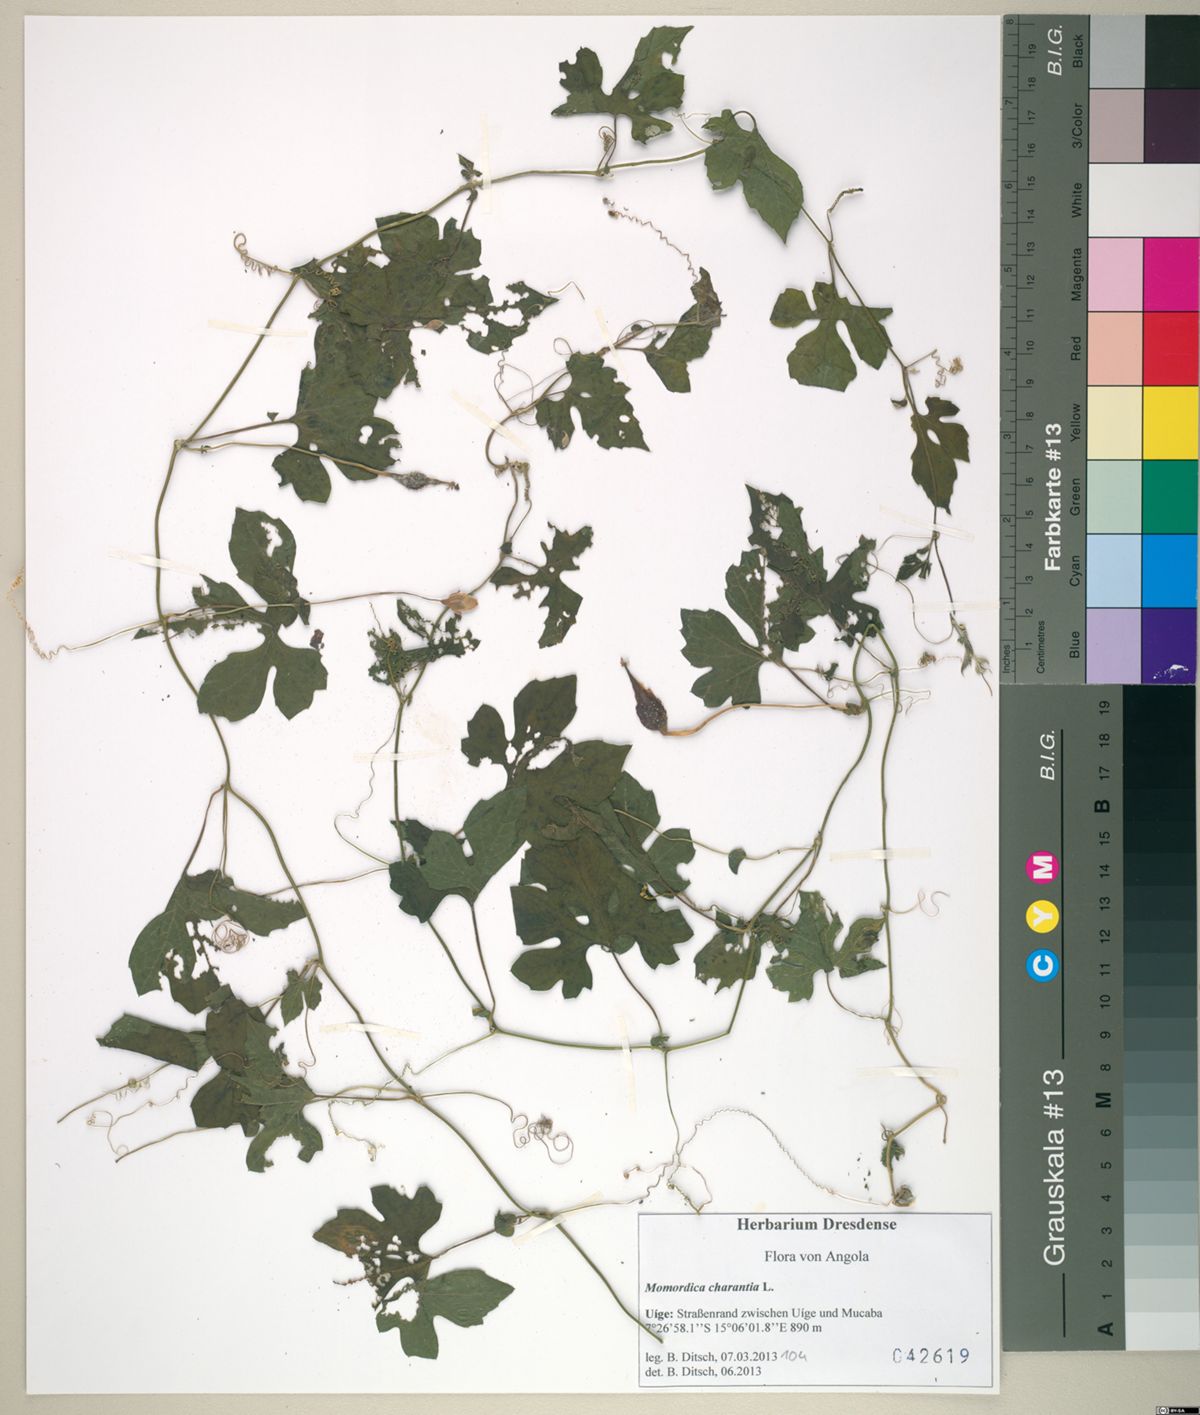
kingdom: Plantae
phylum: Tracheophyta
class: Magnoliopsida
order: Cucurbitales
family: Cucurbitaceae
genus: Momordica
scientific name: Momordica charantia
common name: Balsampear
